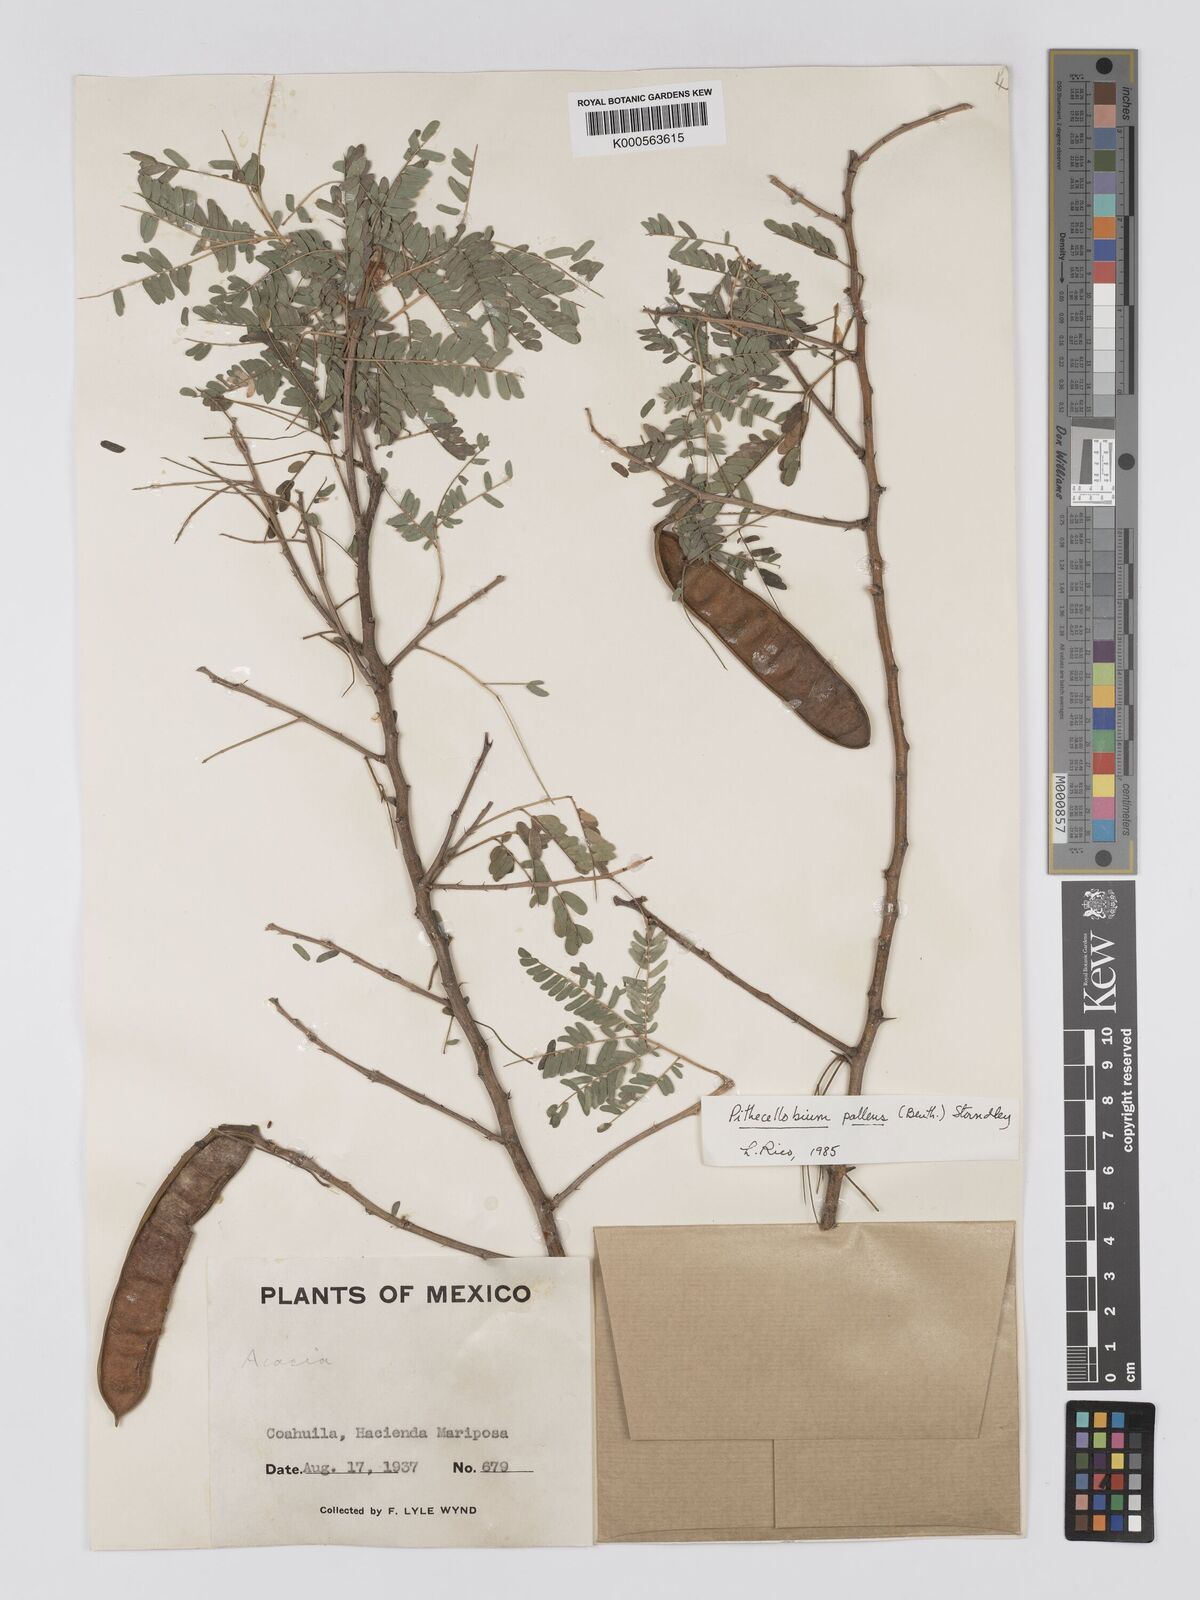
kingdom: Plantae
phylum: Tracheophyta
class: Magnoliopsida
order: Fabales
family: Fabaceae
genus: Havardia
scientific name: Havardia pallens
